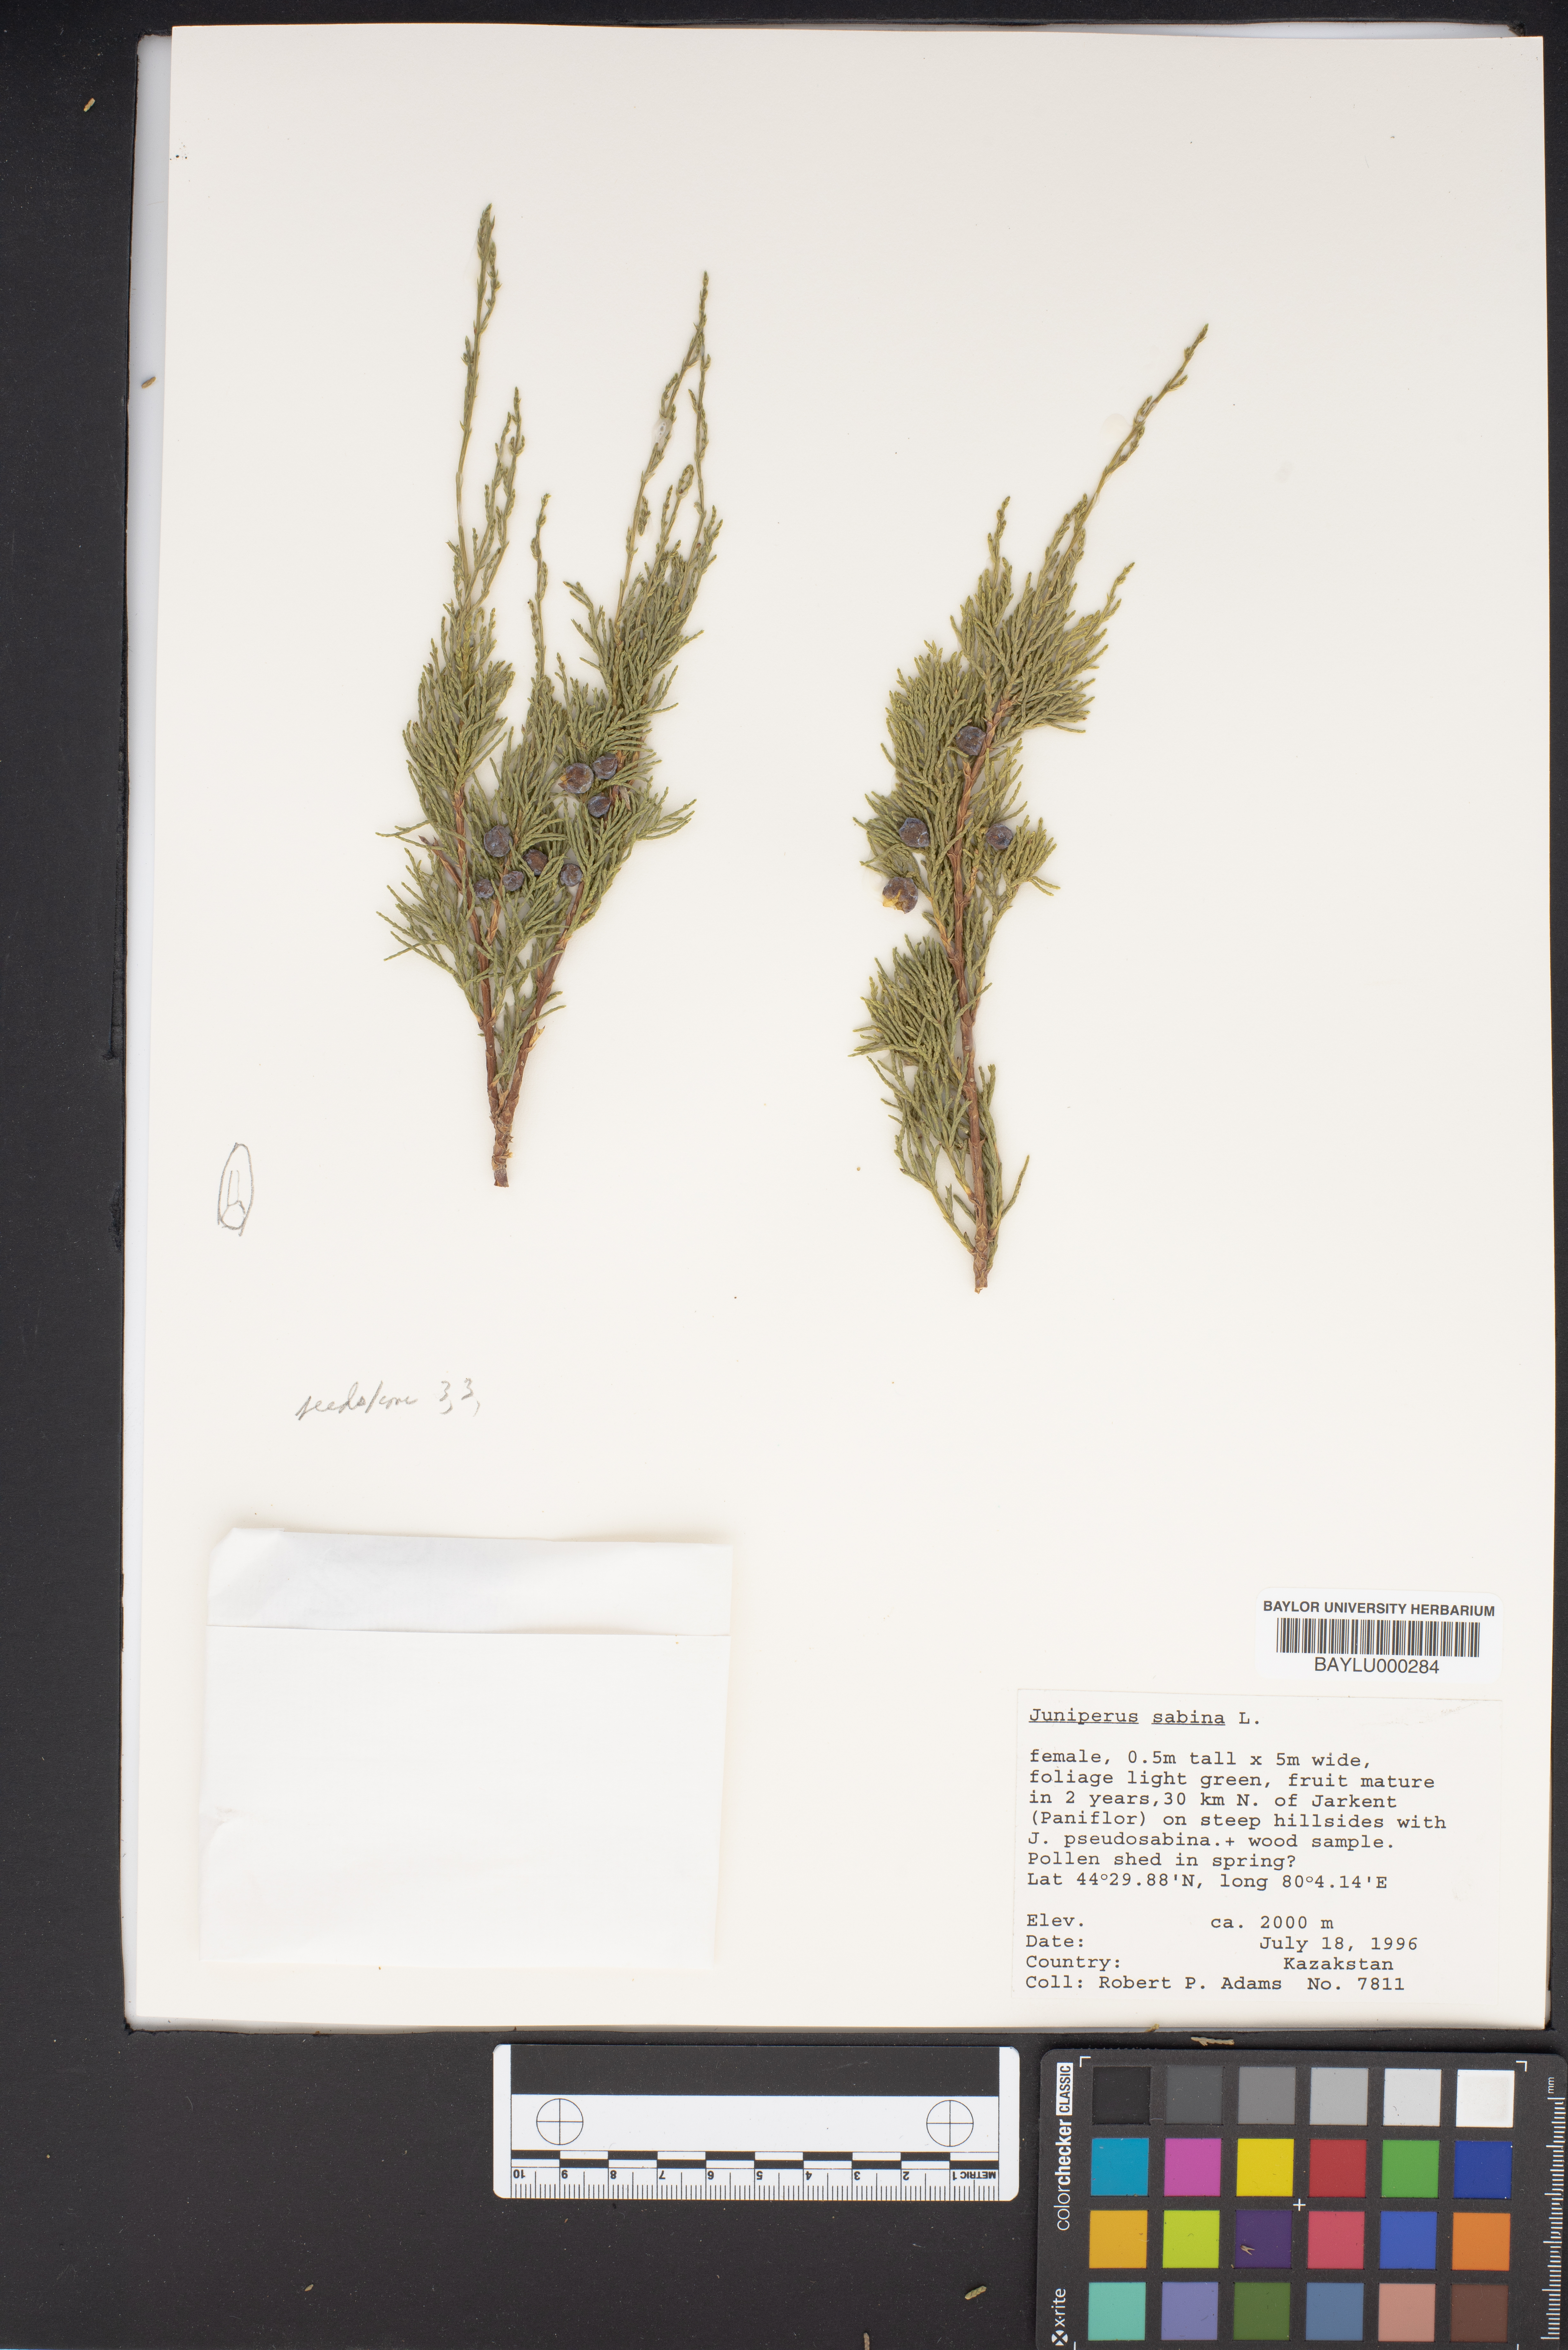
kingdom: Plantae
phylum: Tracheophyta
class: Pinopsida
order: Pinales
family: Cupressaceae
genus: Juniperus
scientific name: Juniperus sabina
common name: Savin
